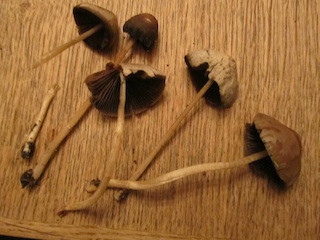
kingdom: Fungi
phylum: Basidiomycota
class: Agaricomycetes
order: Agaricales
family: Psathyrellaceae
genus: Parasola
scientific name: Parasola conopilea
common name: kegle-hjulhat
